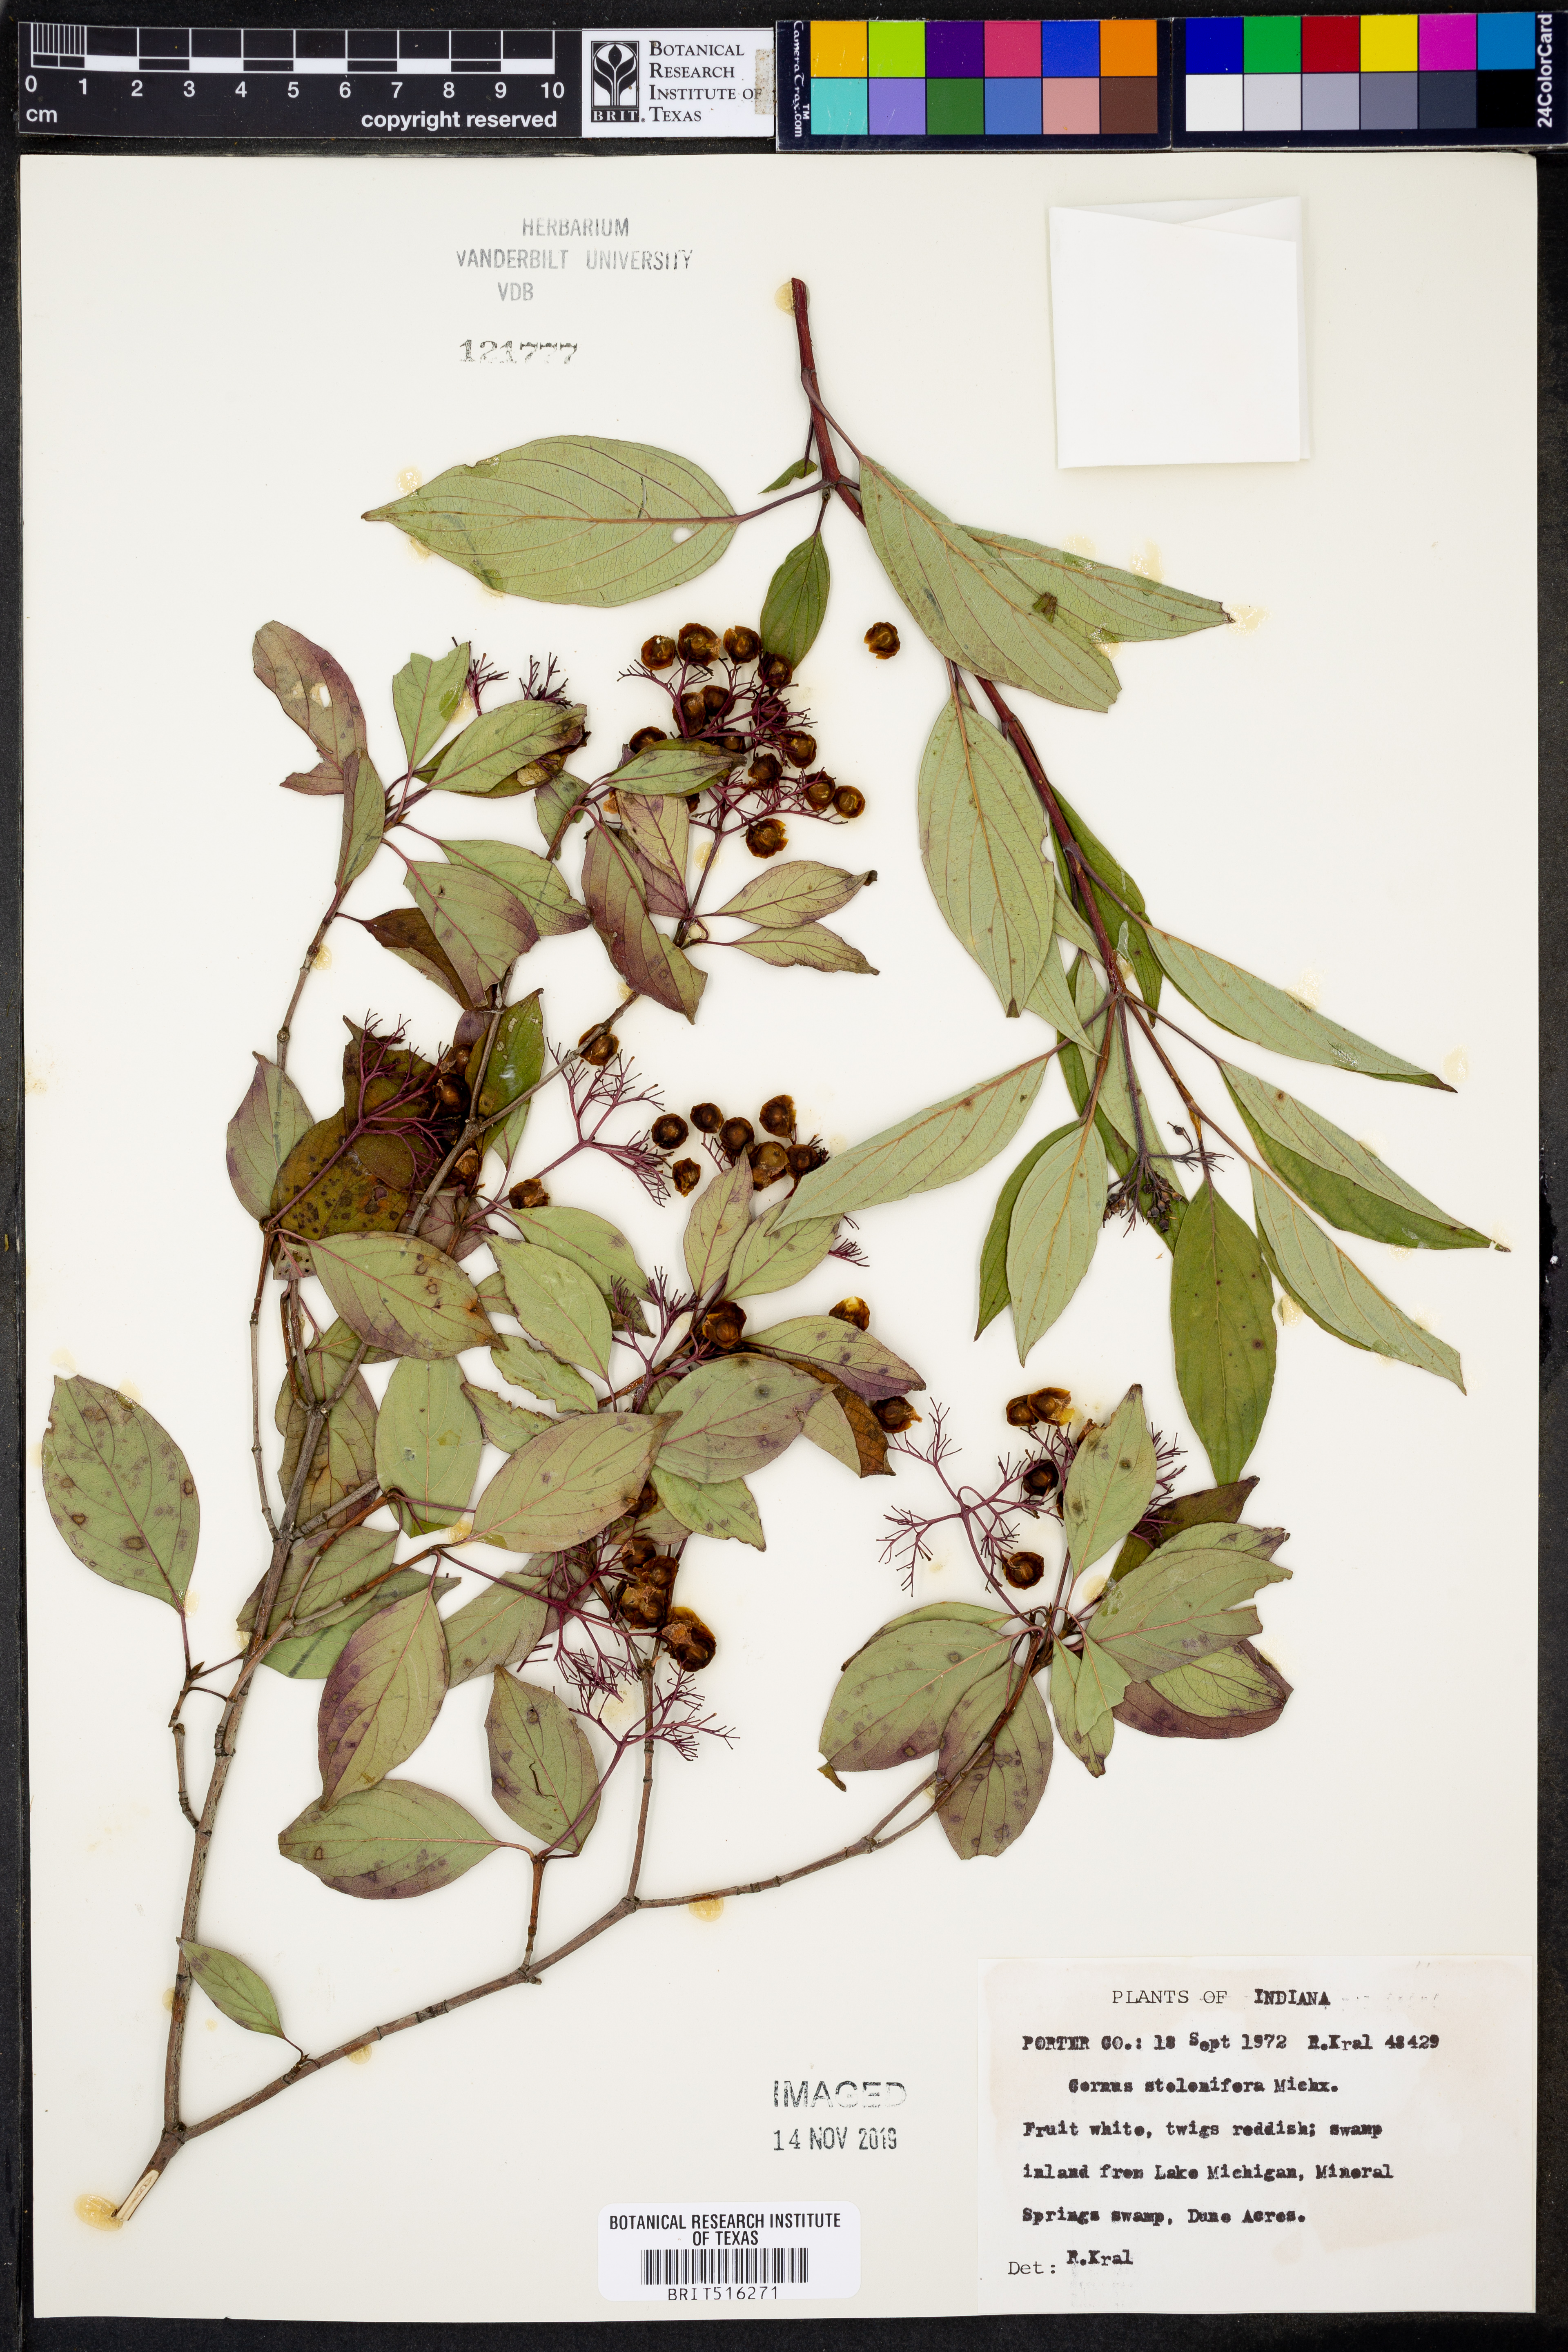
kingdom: Plantae
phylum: Tracheophyta
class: Magnoliopsida
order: Cornales
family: Cornaceae
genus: Cornus
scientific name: Cornus sericea
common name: Red-osier dogwood
